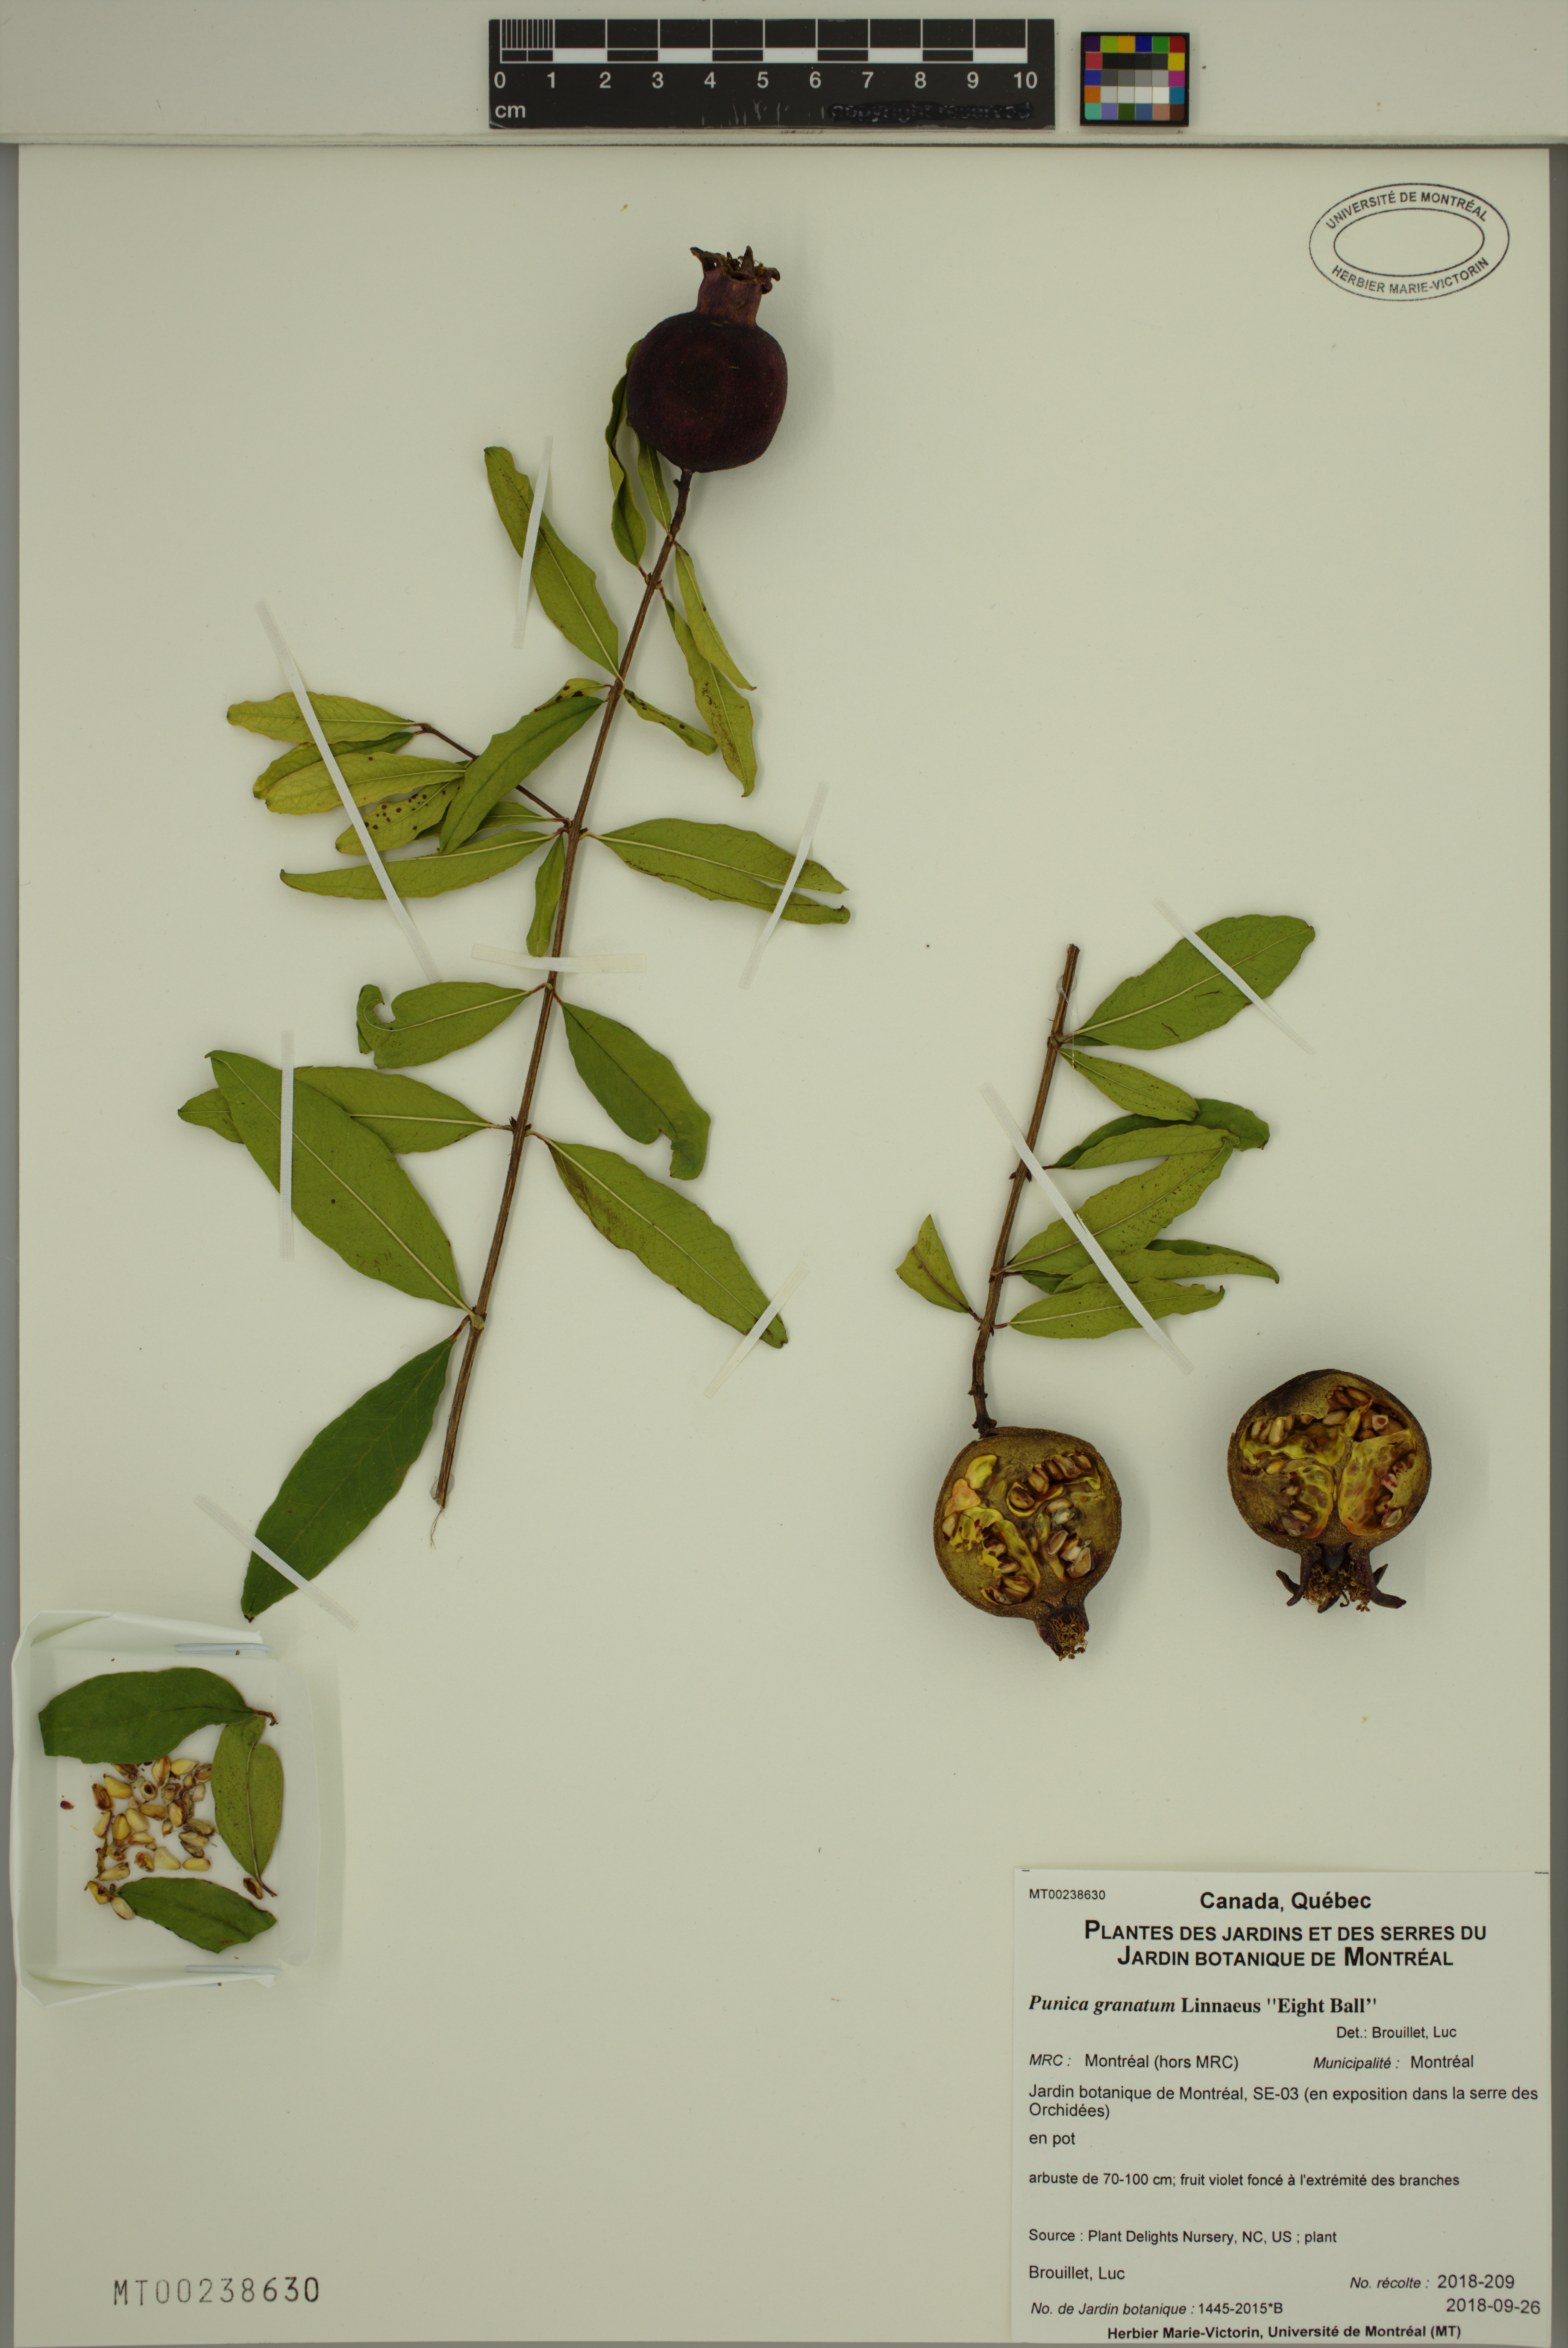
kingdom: Plantae
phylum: Tracheophyta
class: Magnoliopsida
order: Myrtales
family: Lythraceae
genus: Punica
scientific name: Punica granatum
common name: Pomegranate
